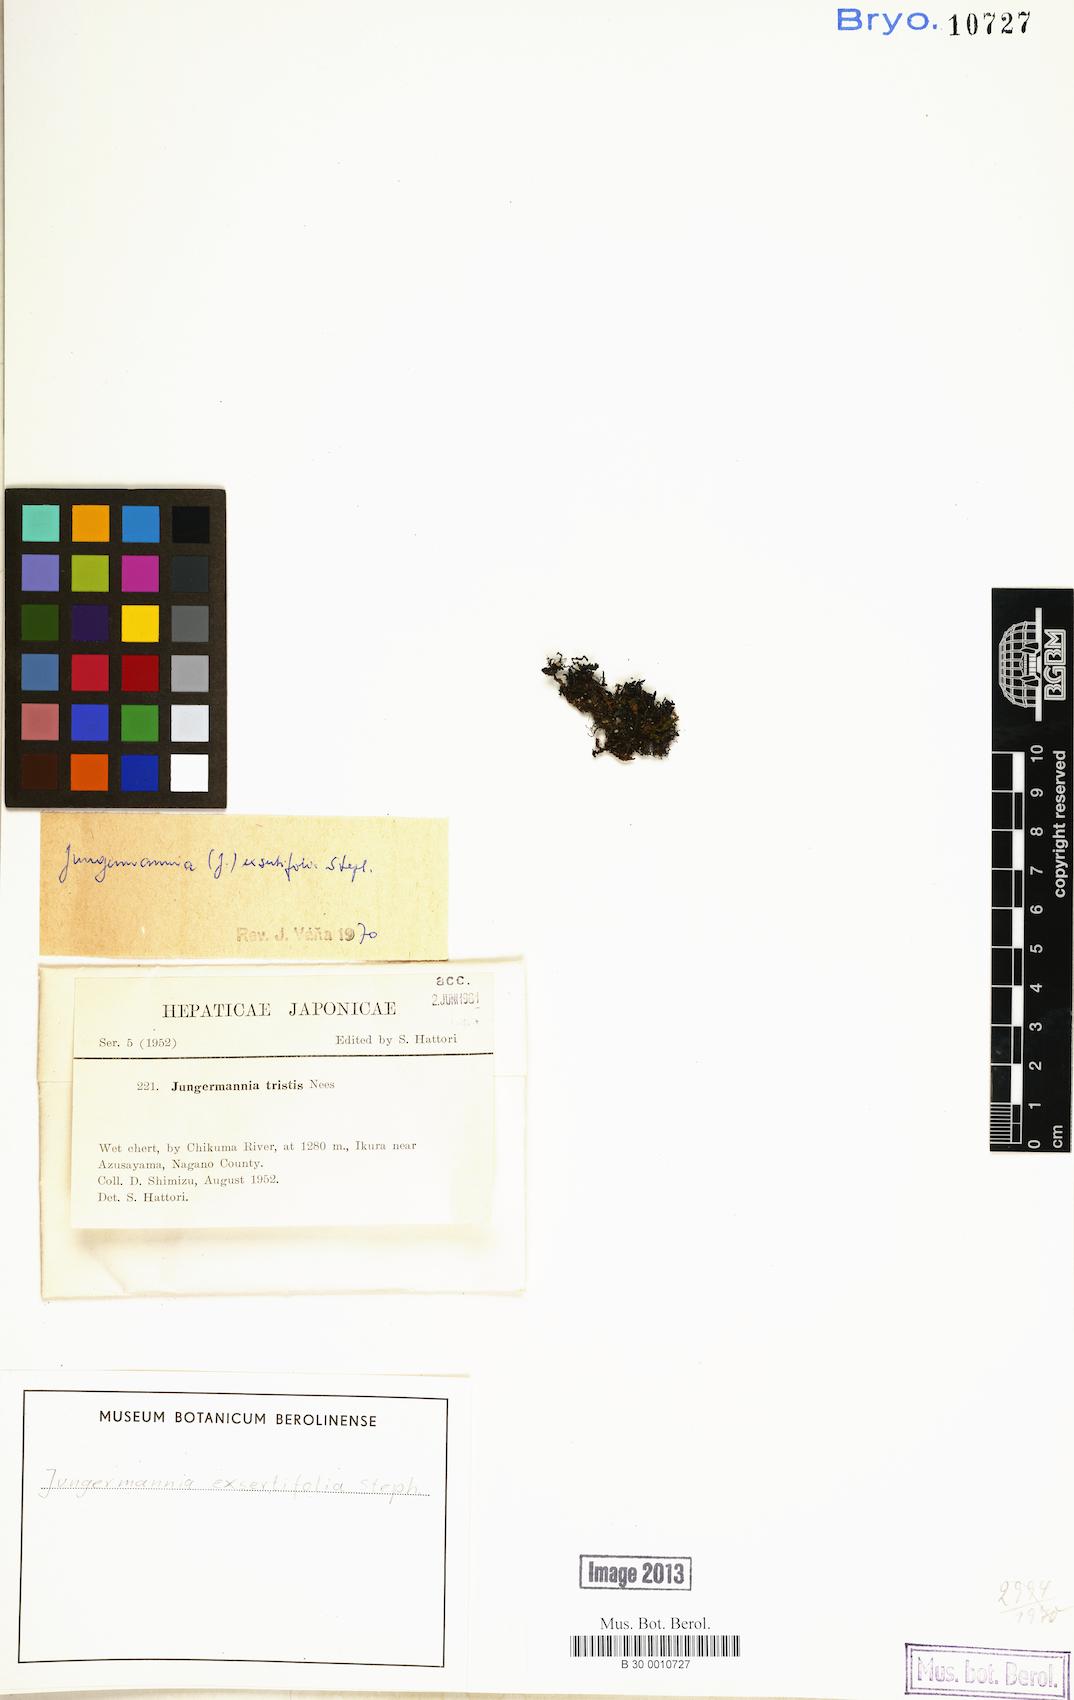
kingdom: Plantae
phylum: Marchantiophyta
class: Jungermanniopsida
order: Jungermanniales
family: Jungermanniaceae
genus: Jungermannia
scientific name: Jungermannia exsertifolia
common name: Cordate flapwort
